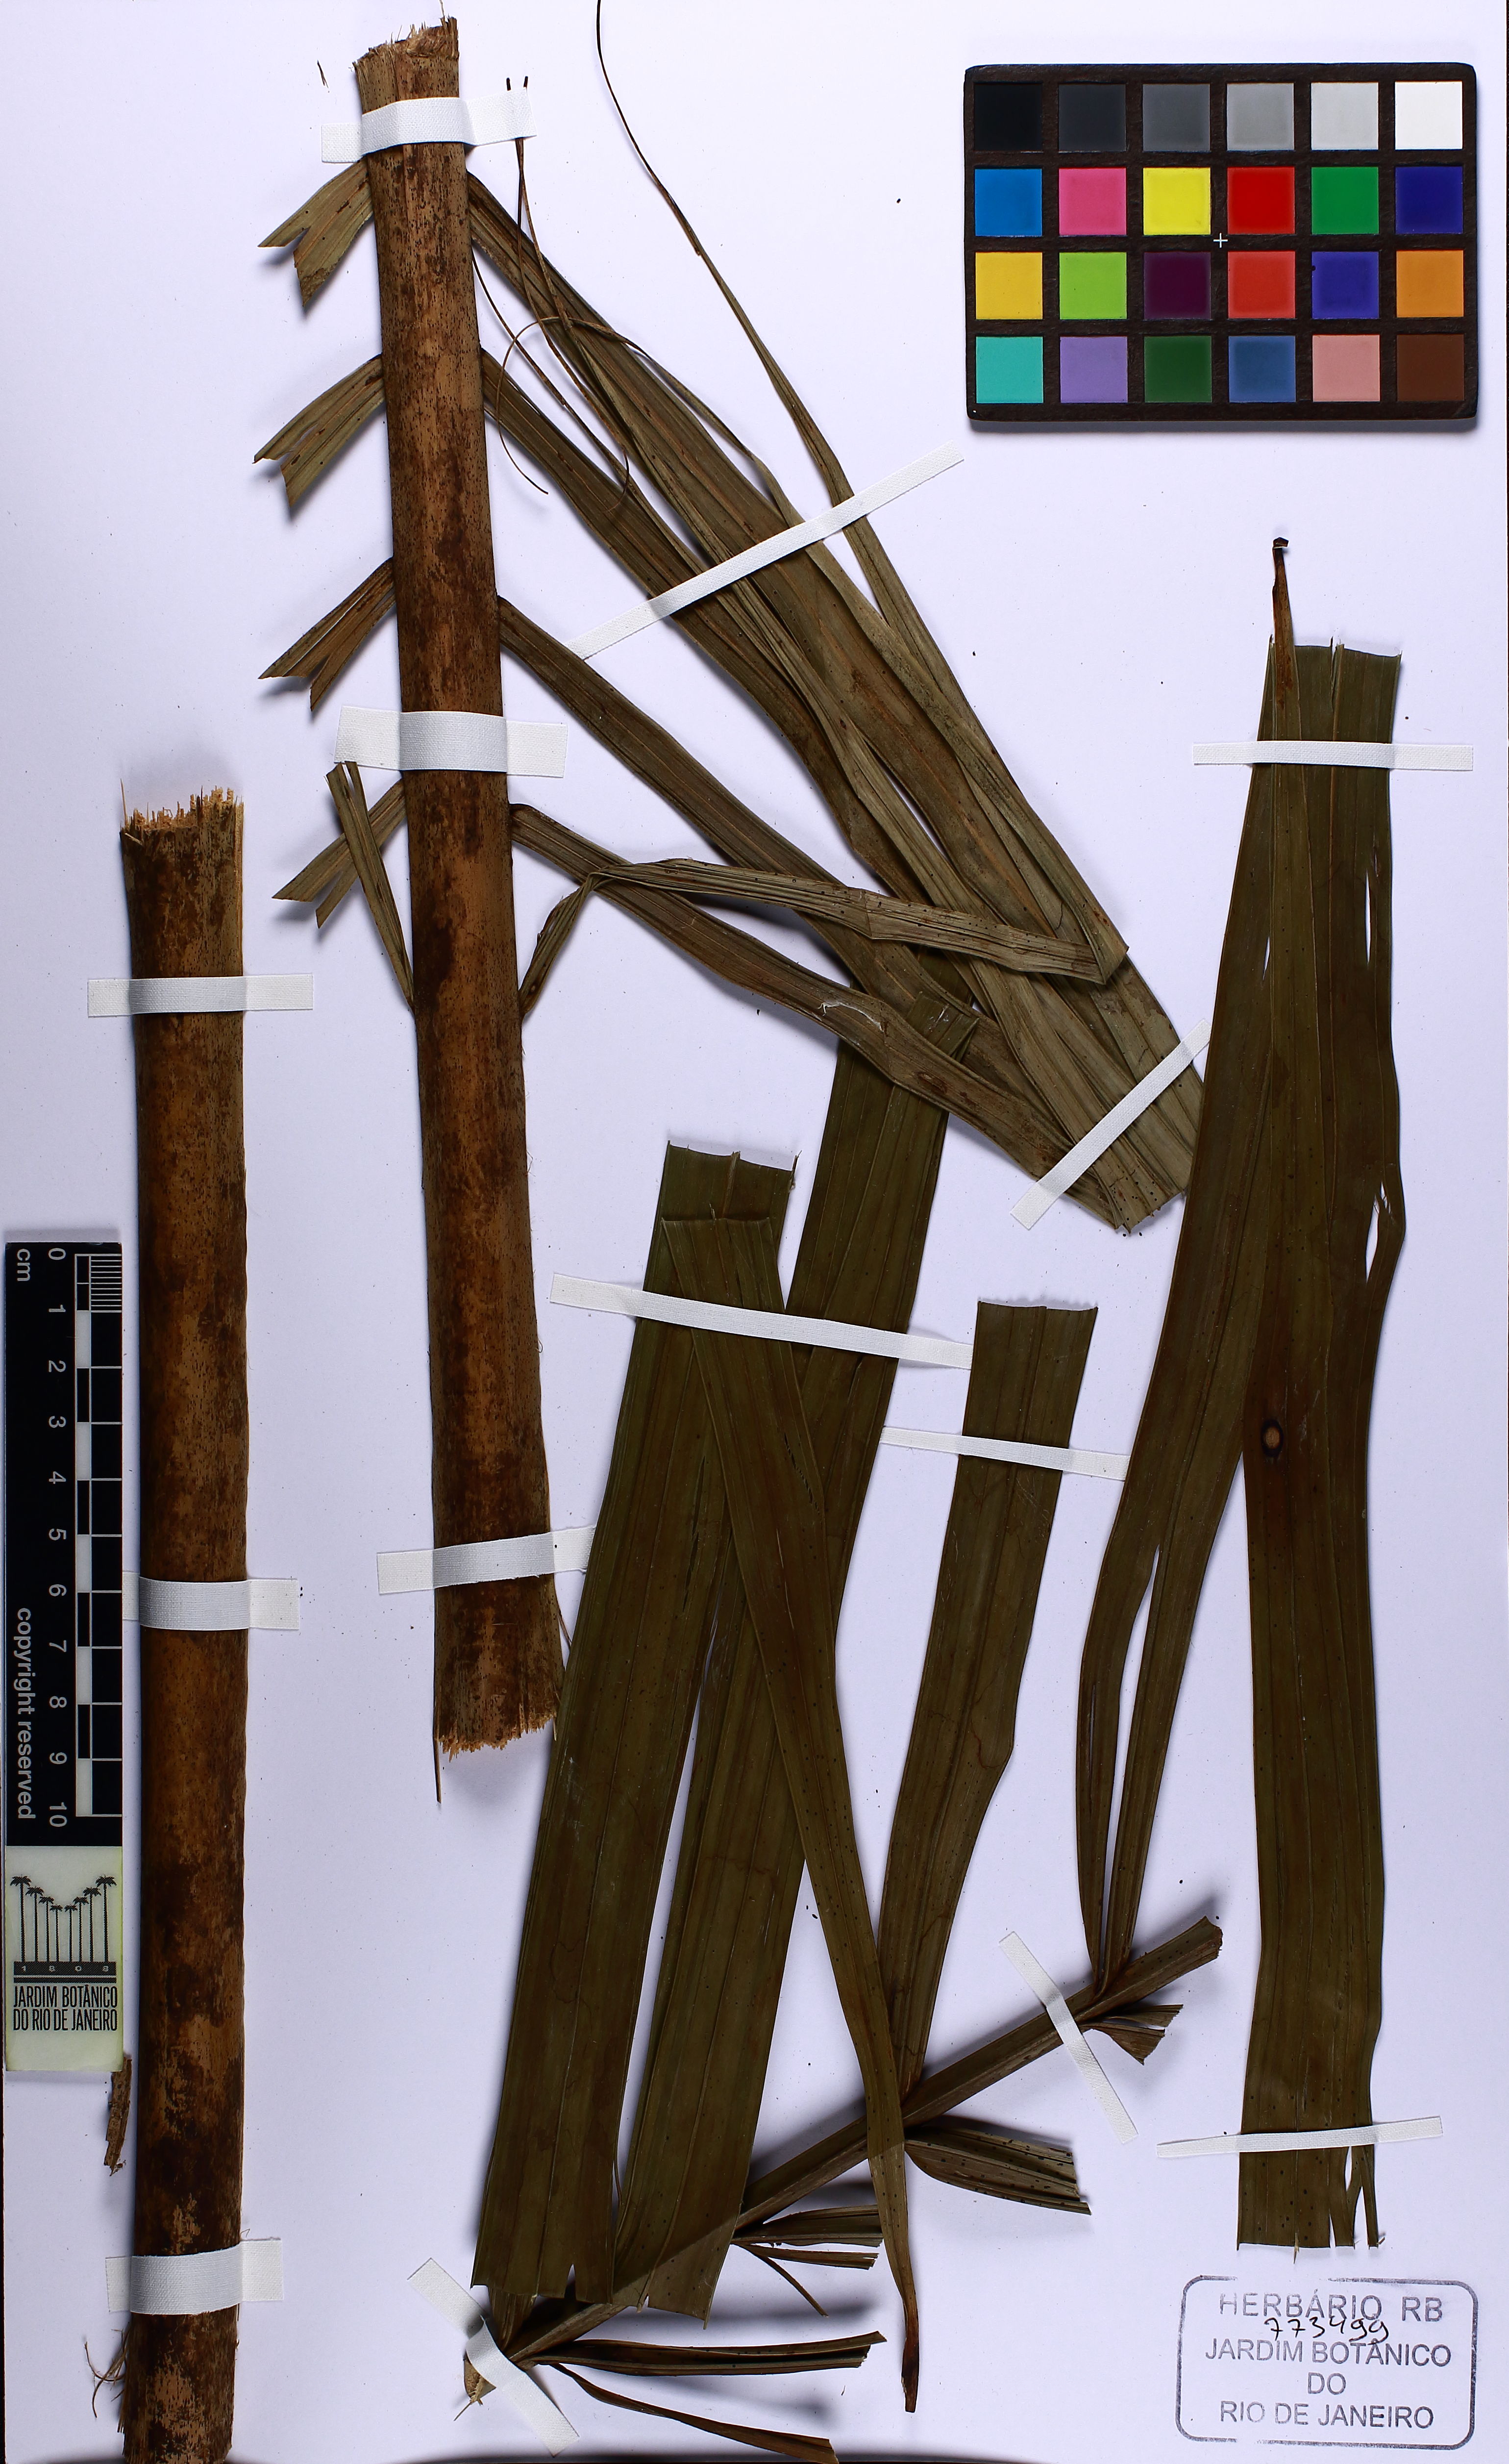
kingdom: Plantae
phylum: Tracheophyta
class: Liliopsida
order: Arecales
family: Arecaceae
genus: Euterpe
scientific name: Euterpe precatoria
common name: Mountain-cabbage
